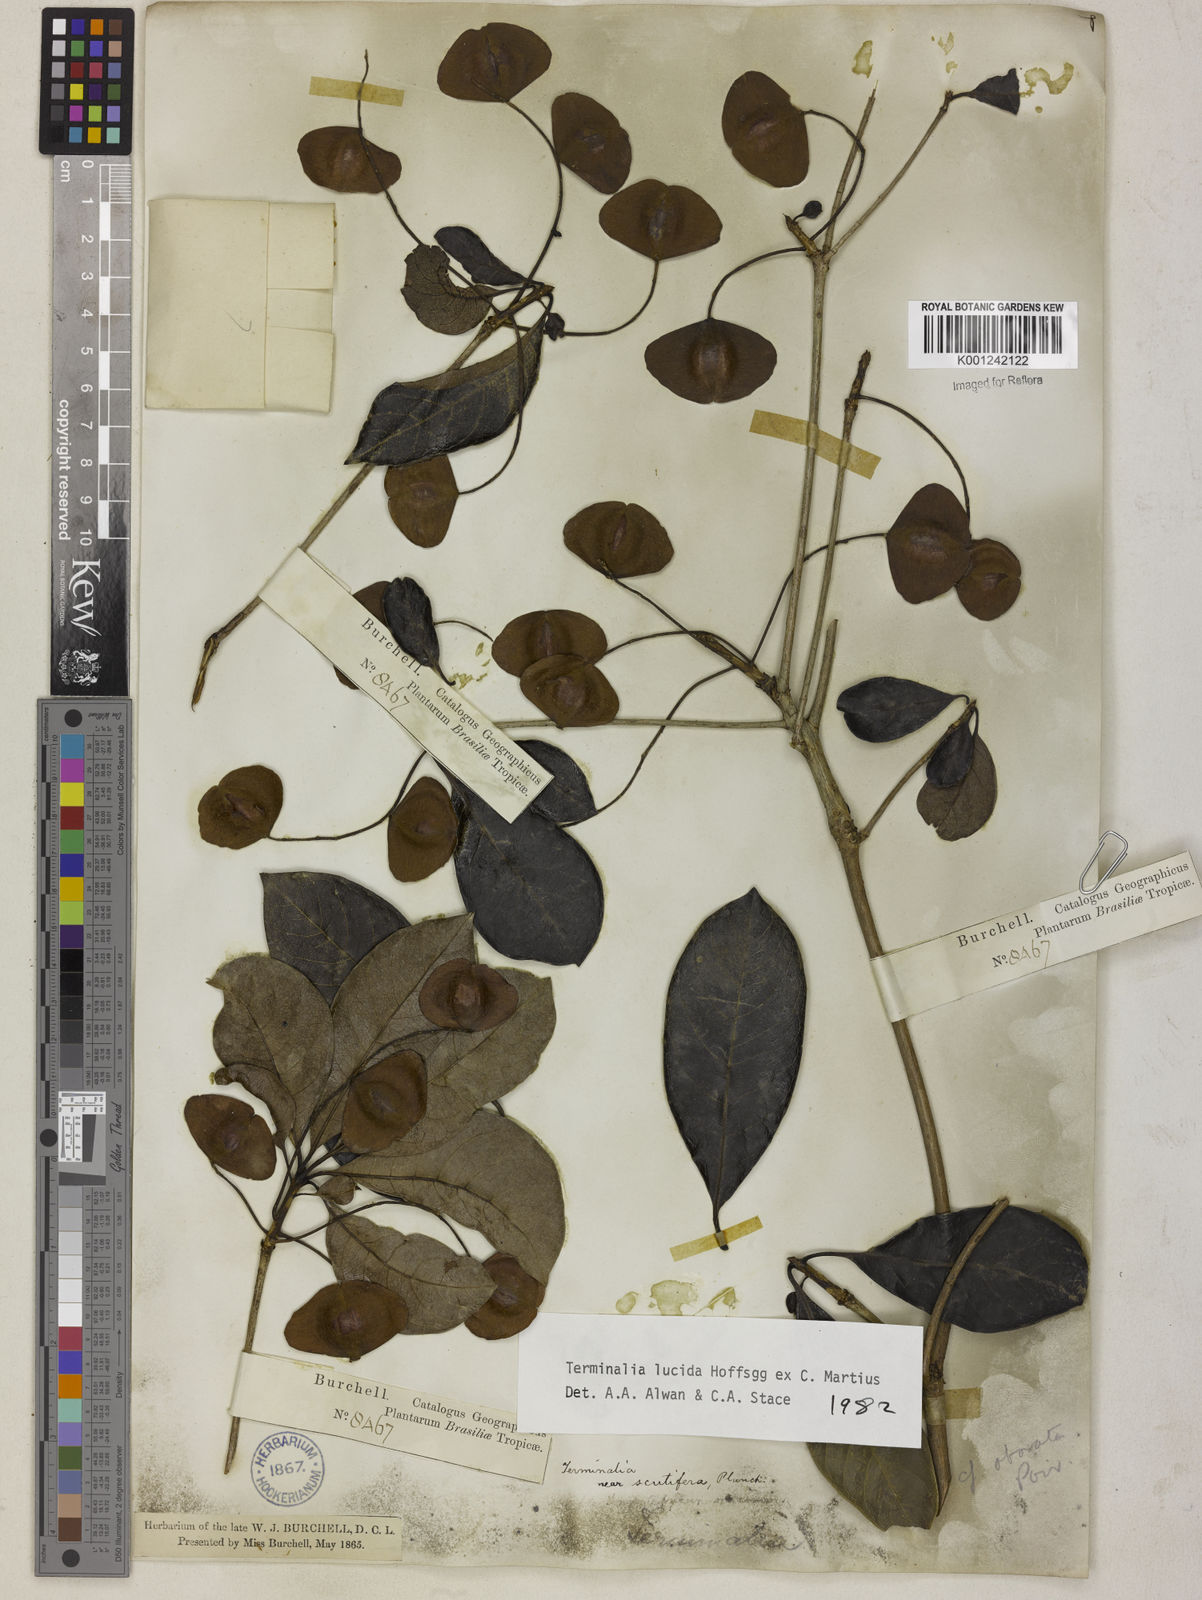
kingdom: Plantae
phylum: Tracheophyta
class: Magnoliopsida
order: Myrtales
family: Combretaceae
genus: Terminalia
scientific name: Terminalia lucida
